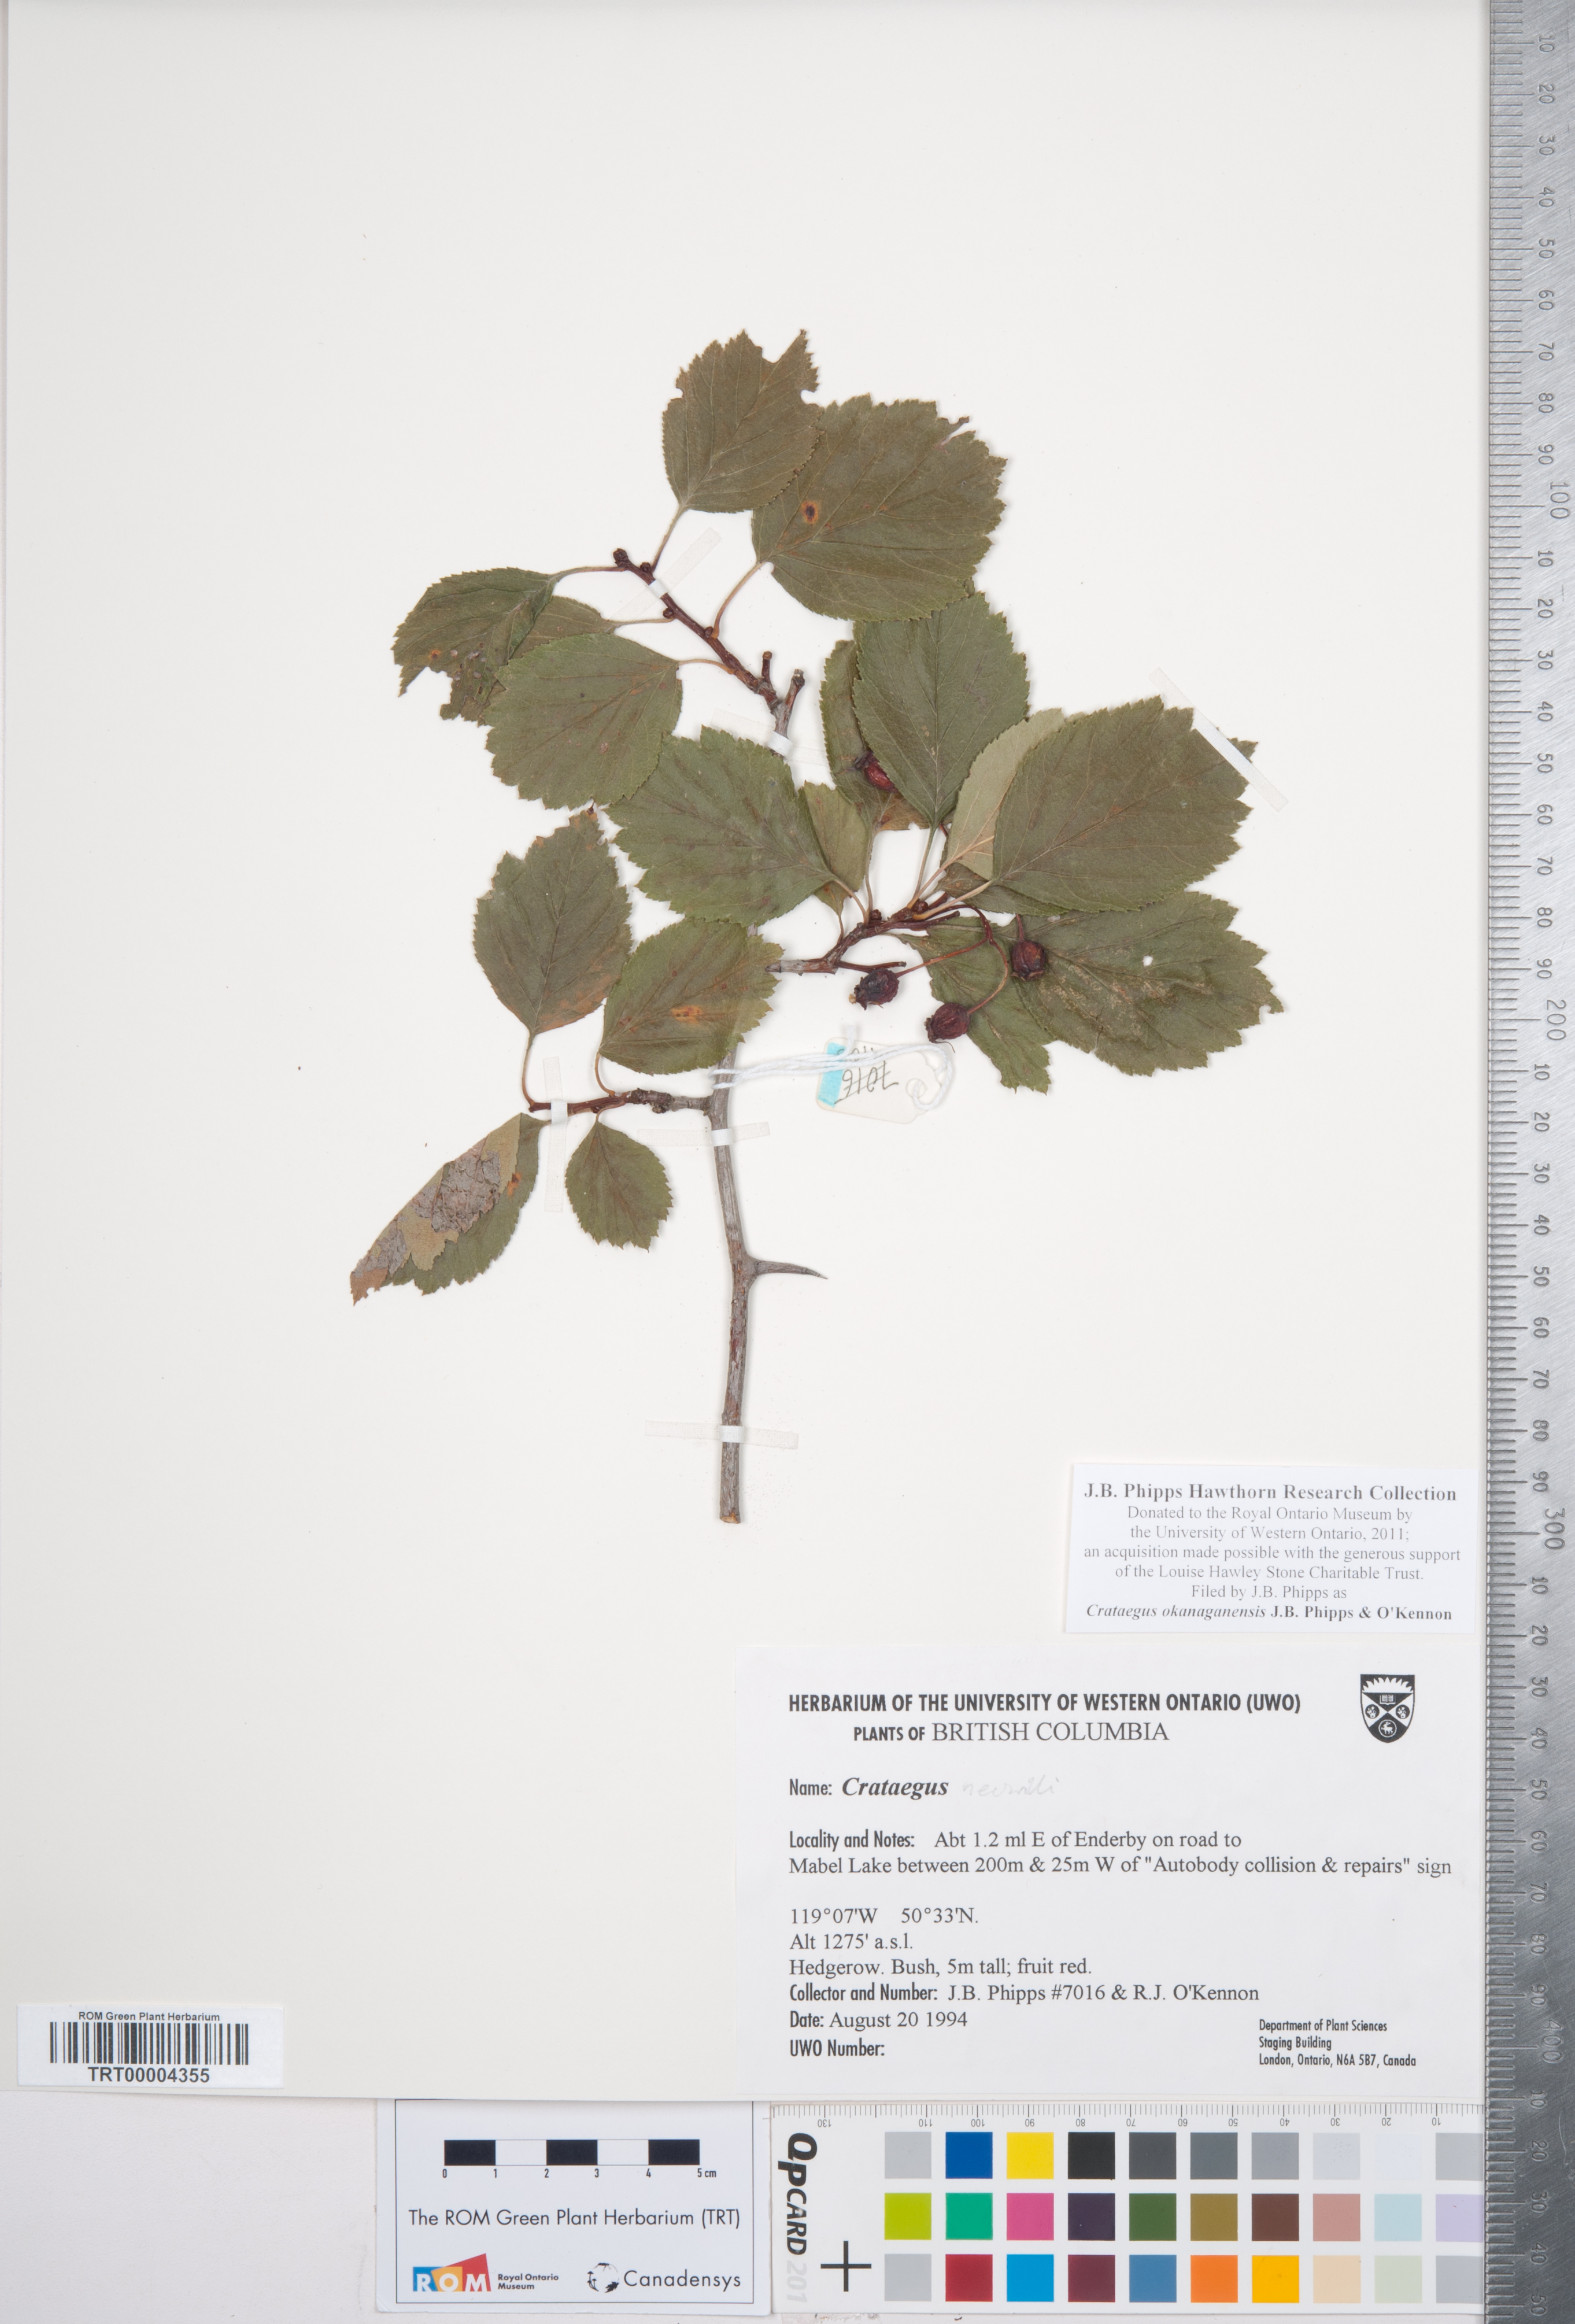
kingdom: Plantae
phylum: Tracheophyta
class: Magnoliopsida
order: Rosales
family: Rosaceae
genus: Crataegus
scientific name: Crataegus okanaganensis
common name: Okanagan valley hawthorn
